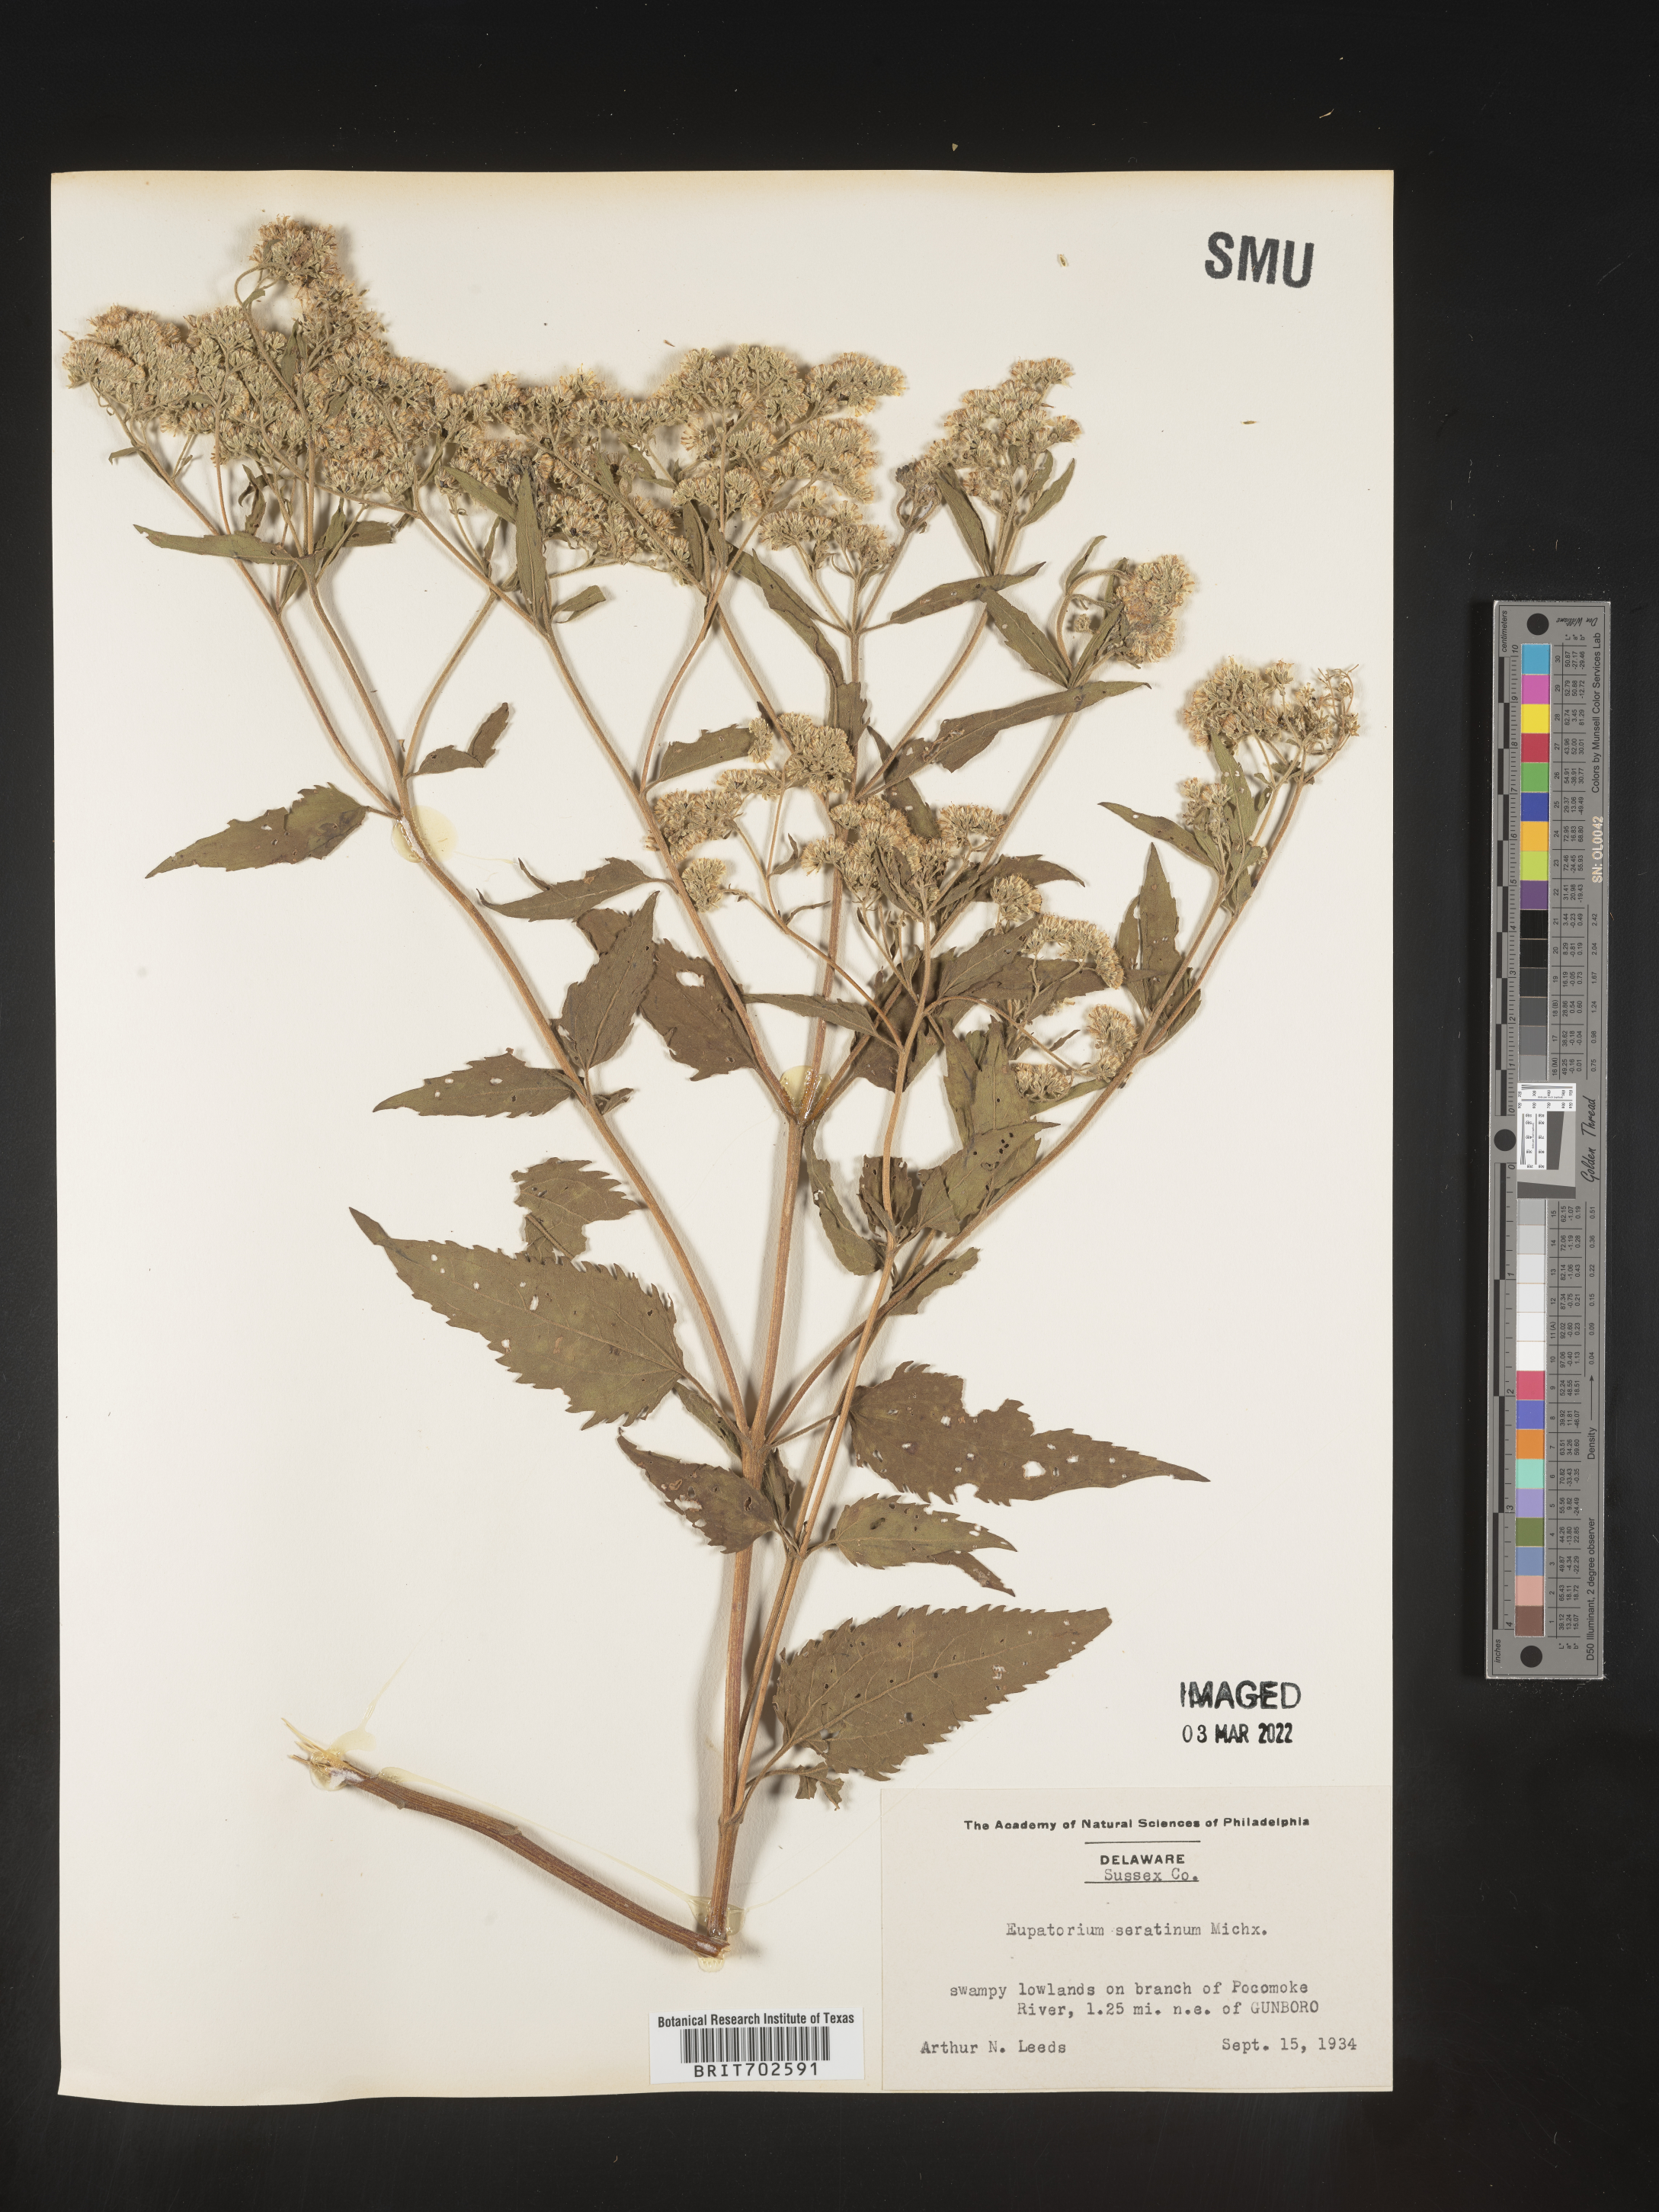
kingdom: Plantae
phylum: Tracheophyta
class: Magnoliopsida
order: Asterales
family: Asteraceae
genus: Eupatorium
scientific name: Eupatorium serotinum
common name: Late boneset
